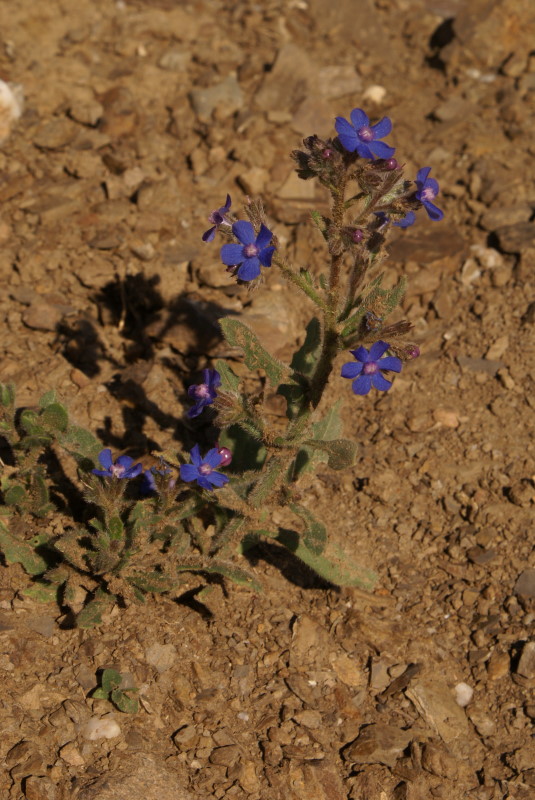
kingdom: Plantae
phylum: Tracheophyta
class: Magnoliopsida
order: Boraginales
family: Boraginaceae
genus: Anchusa
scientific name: Anchusa azurea
